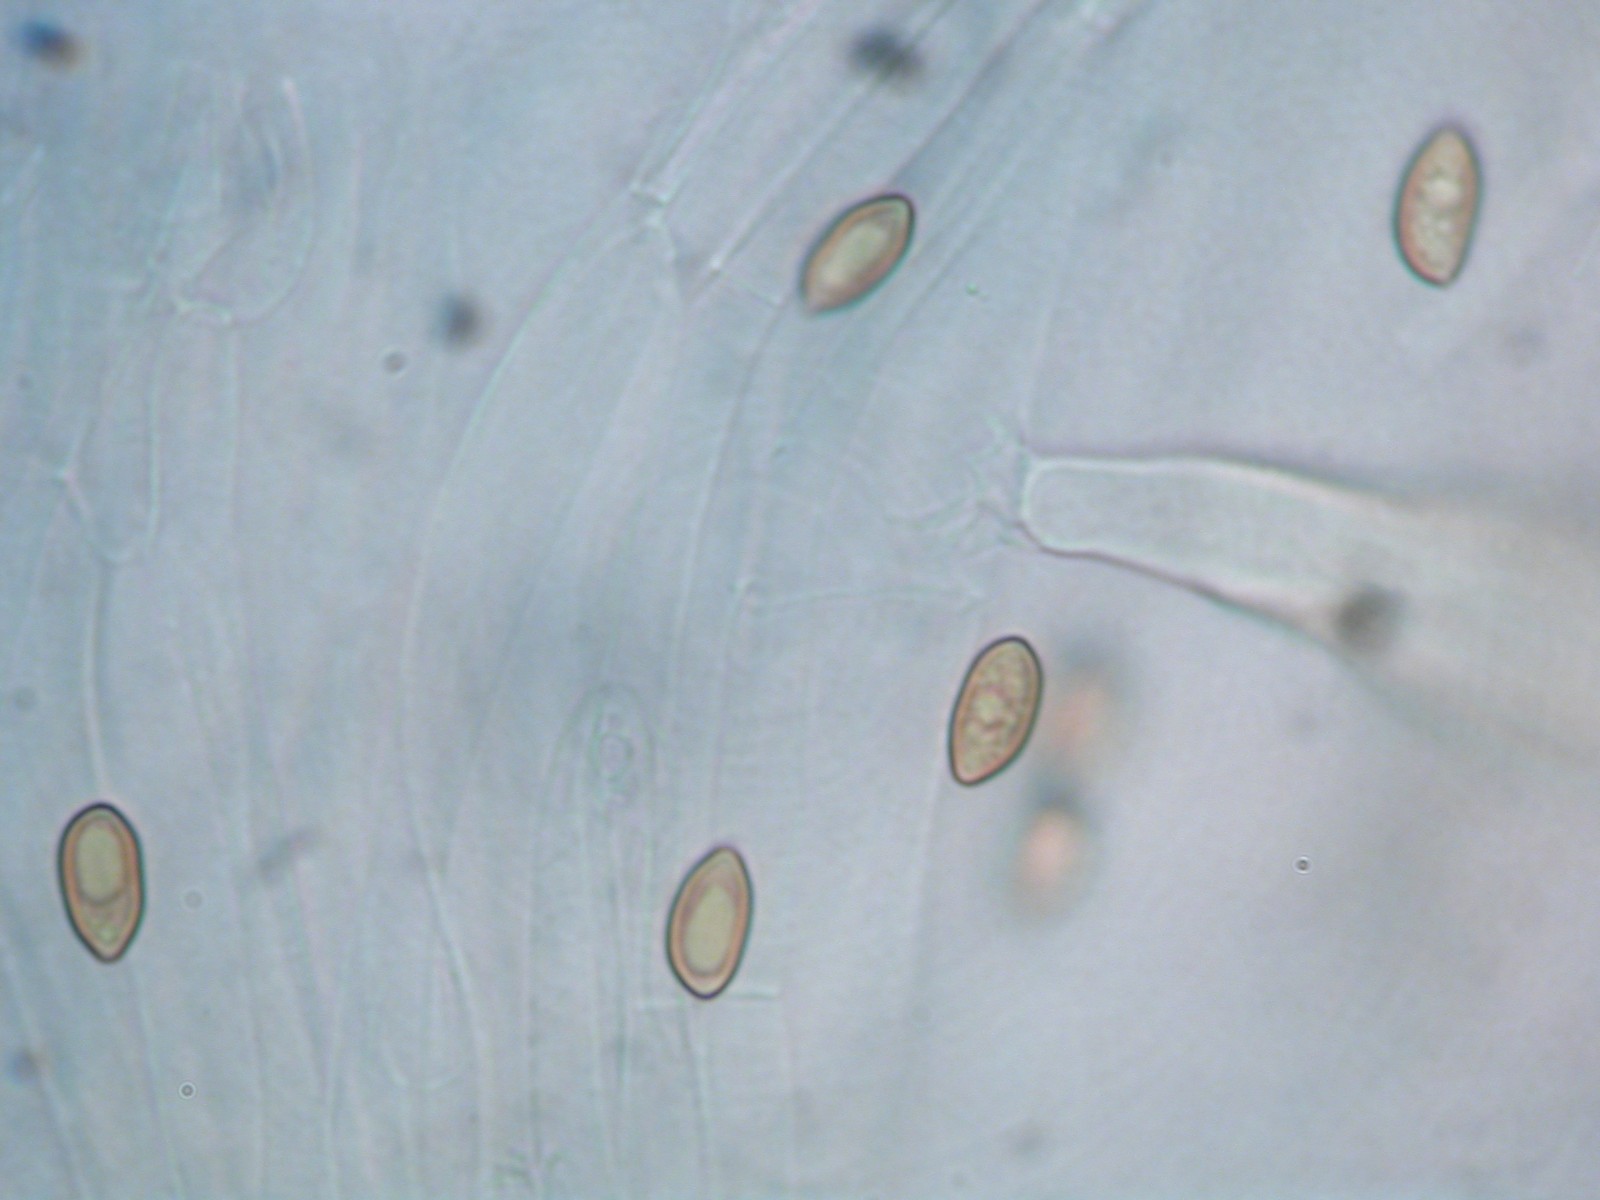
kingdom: Fungi
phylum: Basidiomycota
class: Agaricomycetes
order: Agaricales
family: Inocybaceae
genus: Inocybe
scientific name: Inocybe
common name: trævlhat
